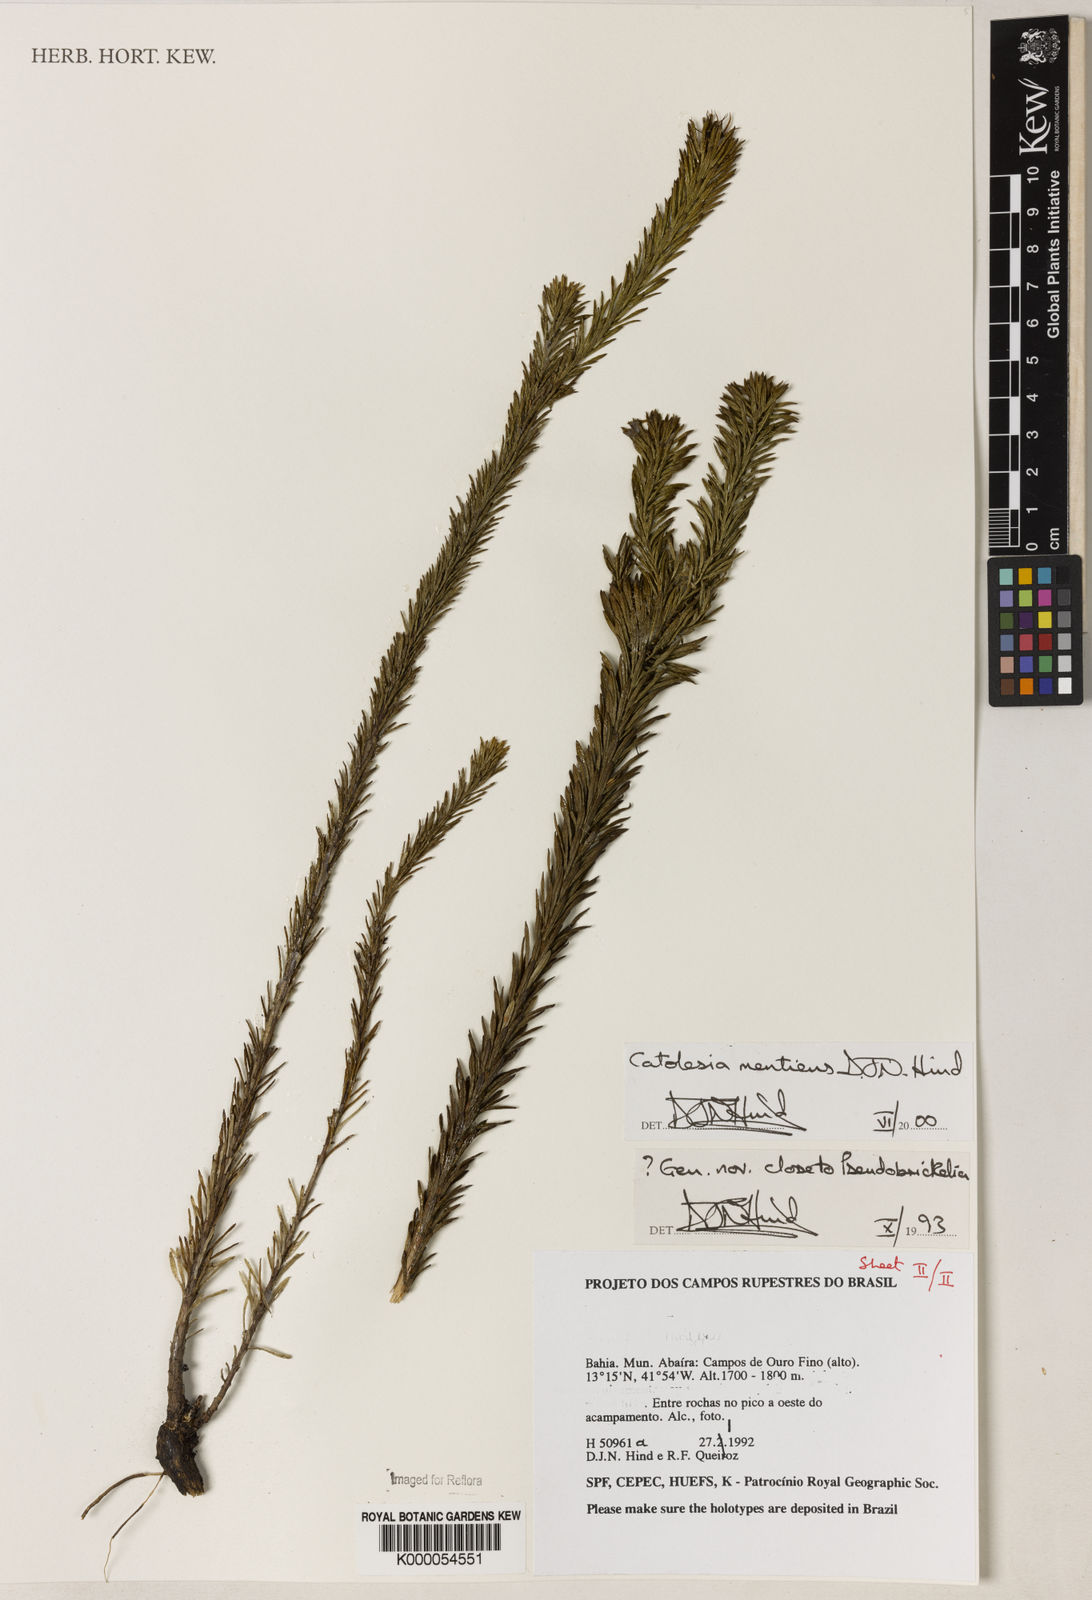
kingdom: Plantae
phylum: Tracheophyta
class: Magnoliopsida
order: Asterales
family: Asteraceae
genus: Catolesia
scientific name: Catolesia mentiens
